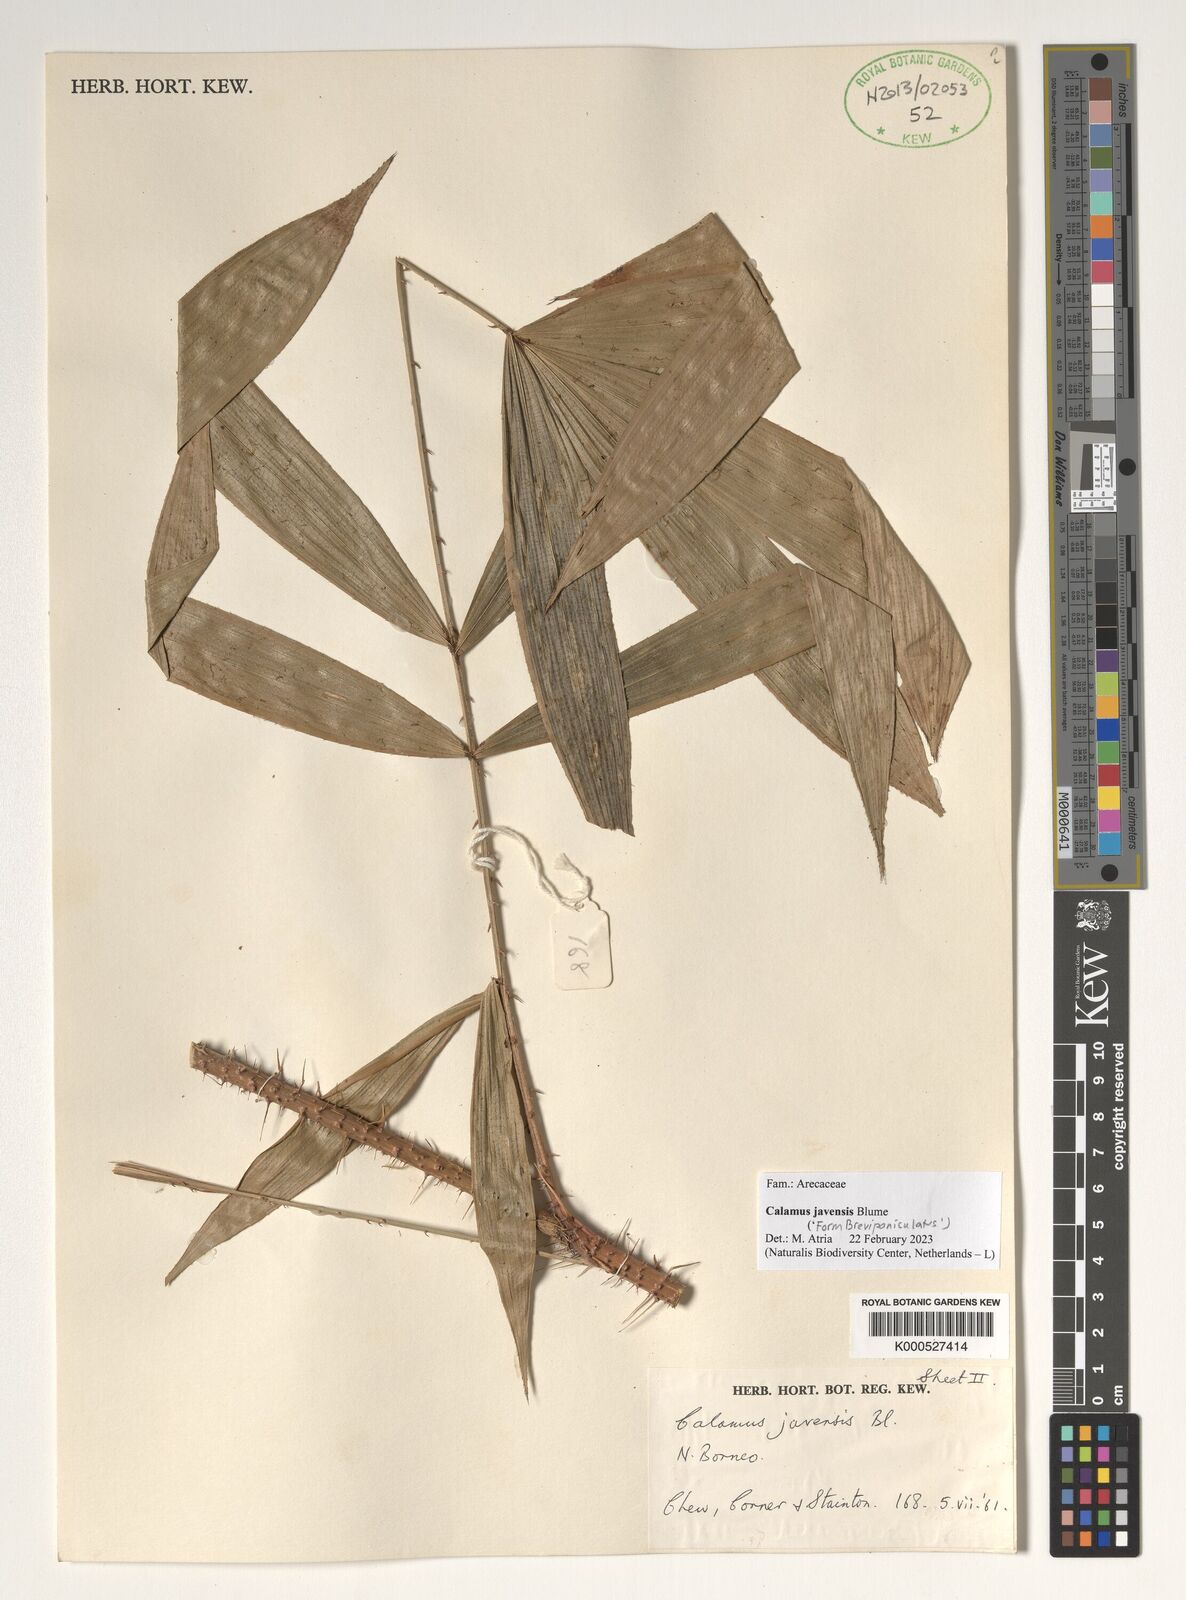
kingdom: Plantae
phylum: Tracheophyta
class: Liliopsida
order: Arecales
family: Arecaceae
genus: Calamus
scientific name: Calamus javensis
